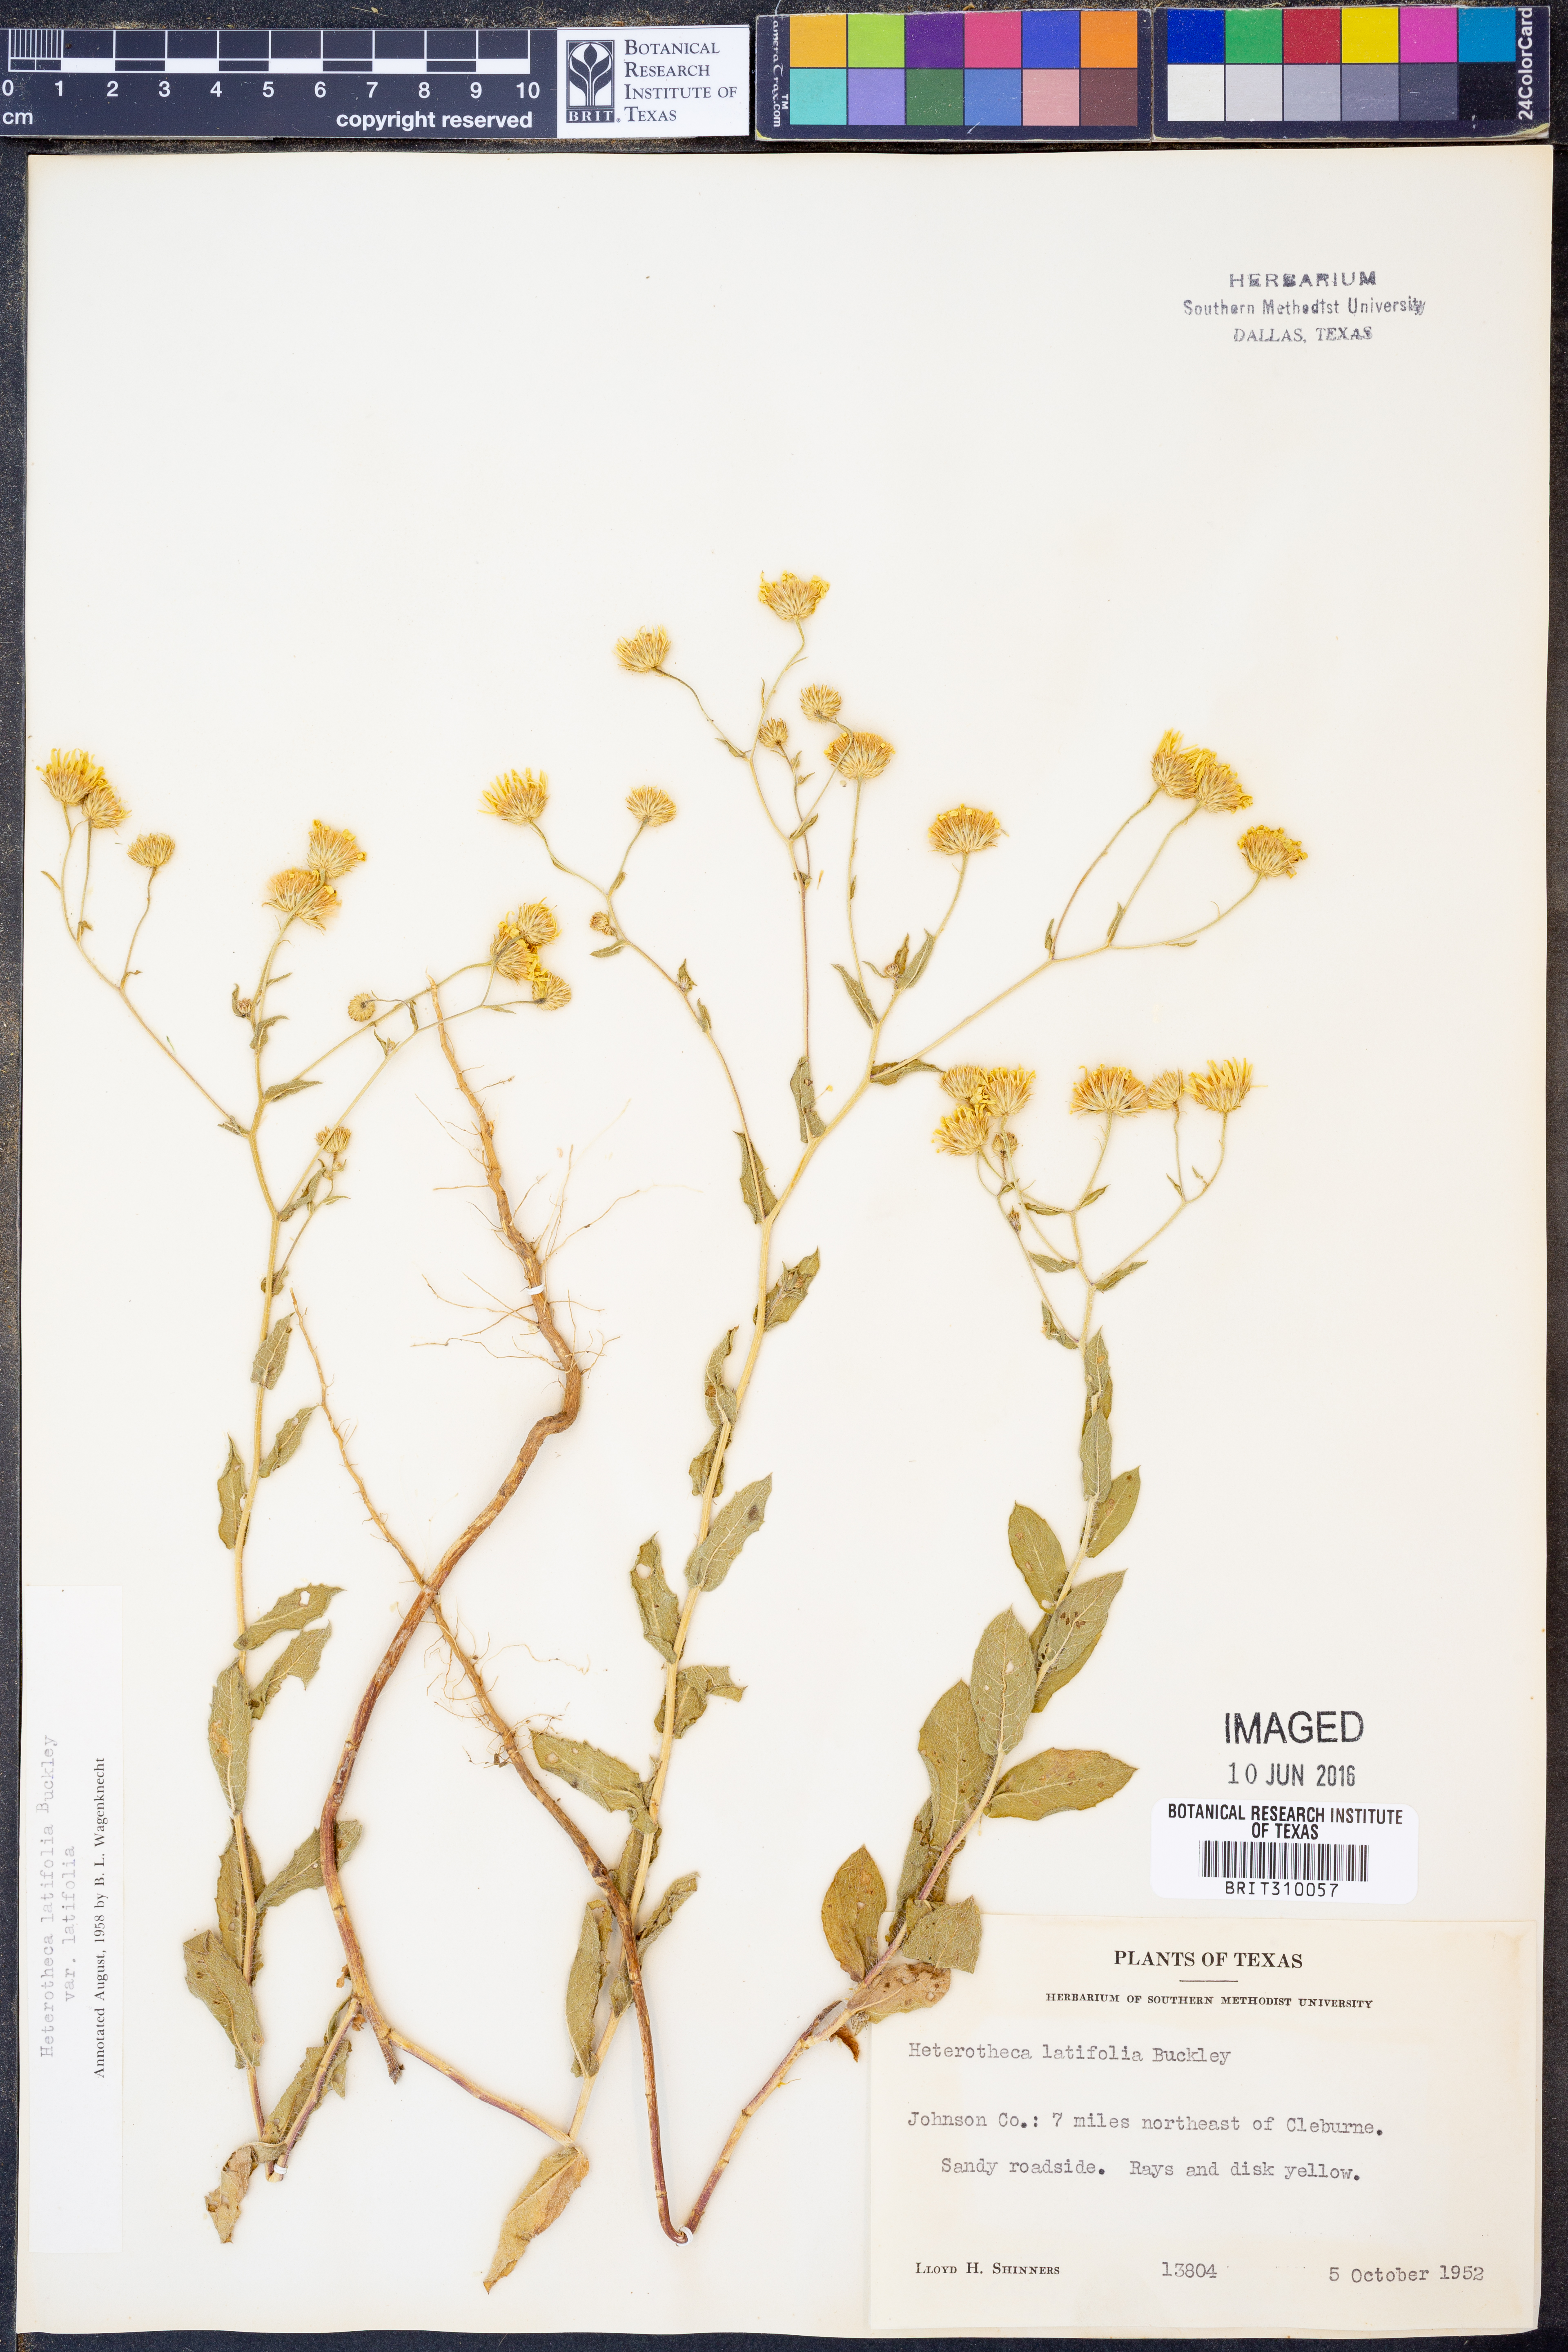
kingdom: Plantae
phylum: Tracheophyta
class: Magnoliopsida
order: Asterales
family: Asteraceae
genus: Heterotheca
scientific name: Heterotheca subaxillaris
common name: Camphorweed
